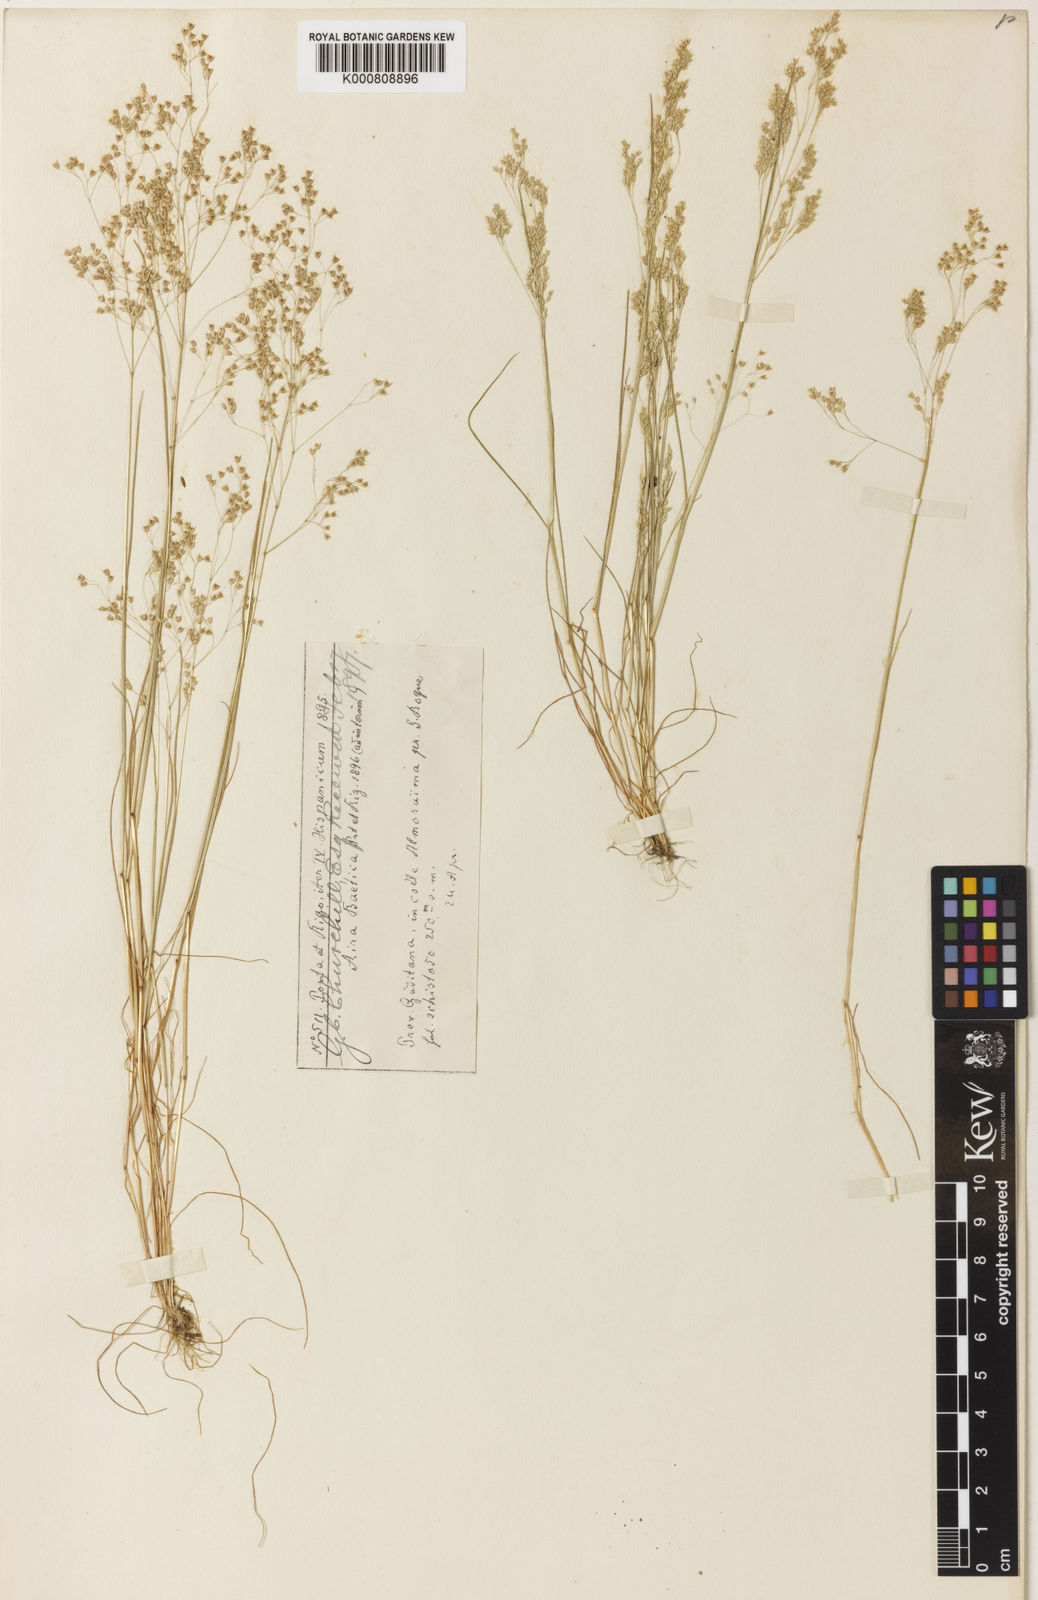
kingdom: Plantae
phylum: Tracheophyta
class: Liliopsida
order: Poales
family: Poaceae
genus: Aira
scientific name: Aira caryophyllea
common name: Silver hairgrass
